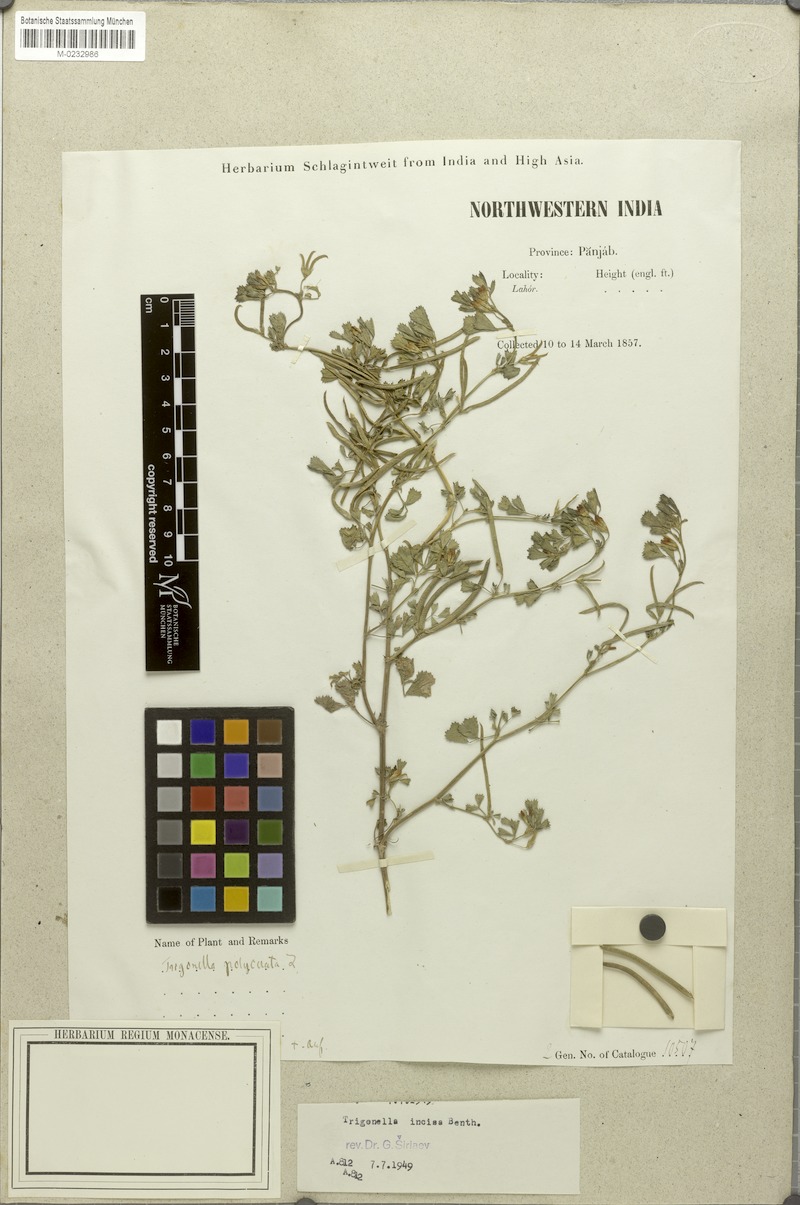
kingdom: Plantae
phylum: Tracheophyta
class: Magnoliopsida
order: Fabales
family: Fabaceae
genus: Medicago
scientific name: Medicago monantha
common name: Medick
